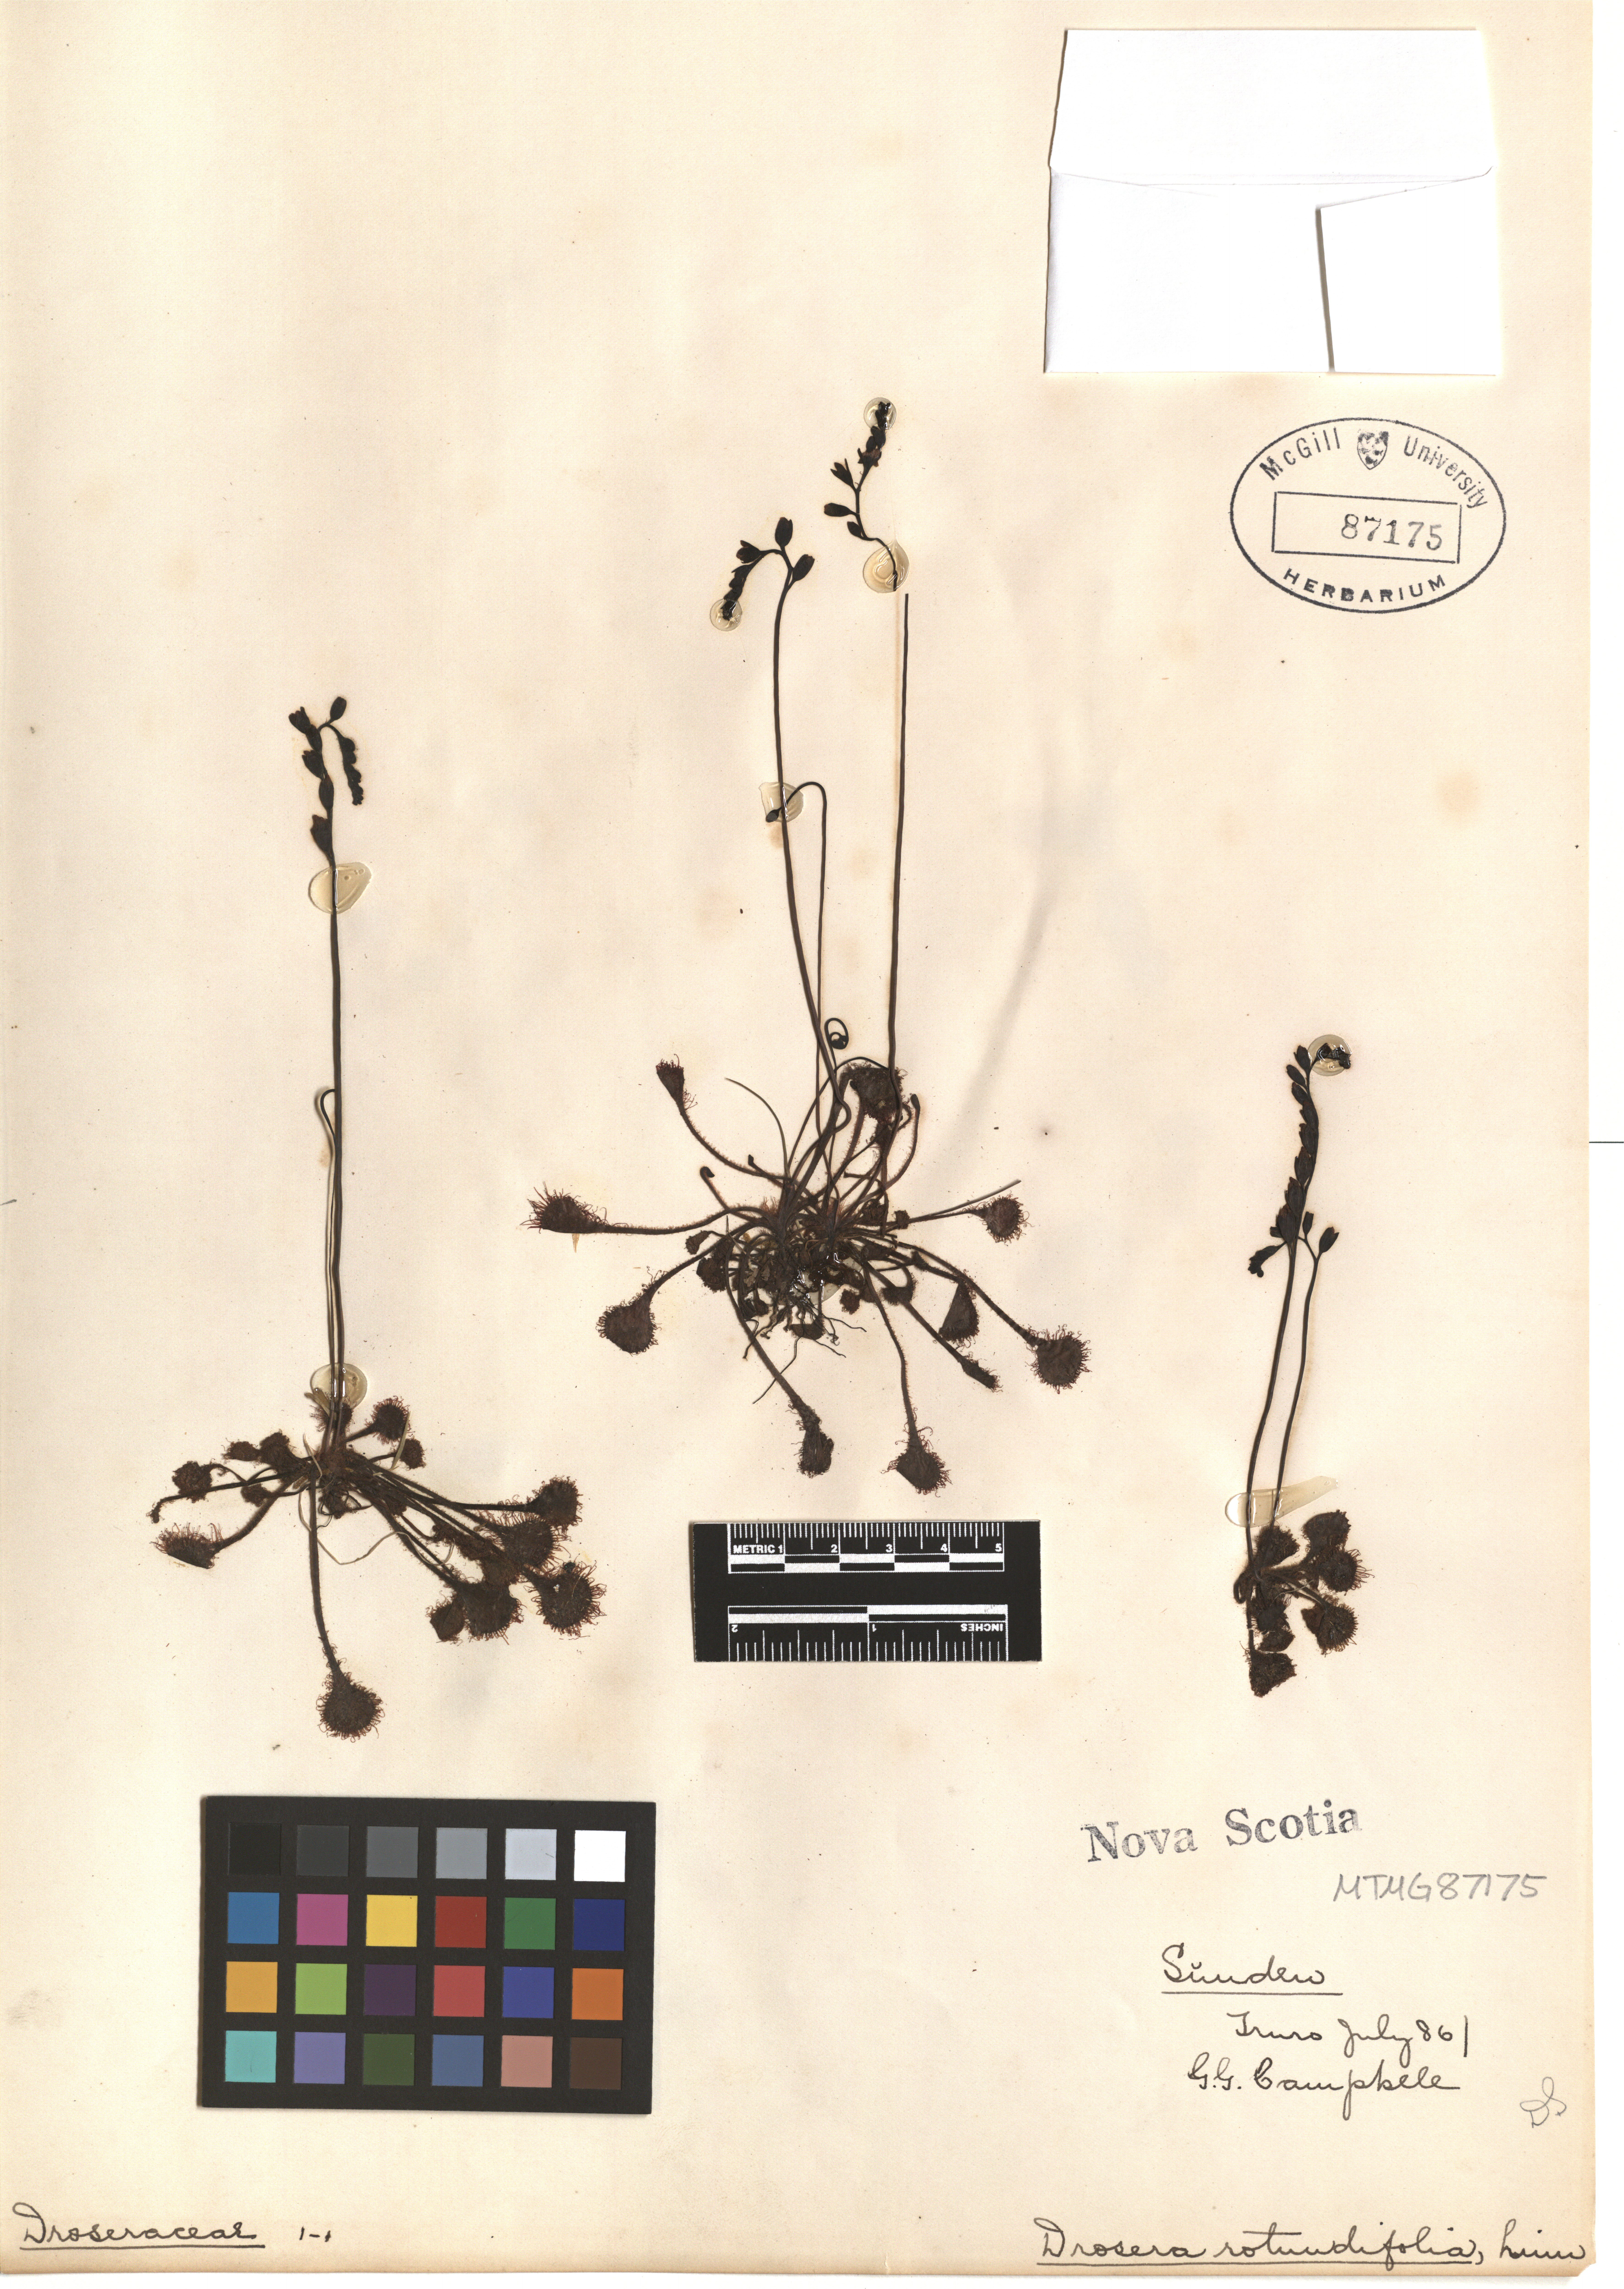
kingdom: Plantae
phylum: Tracheophyta
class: Magnoliopsida
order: Caryophyllales
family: Droseraceae
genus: Drosera
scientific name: Drosera rotundifolia
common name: Round-leaved sundew
